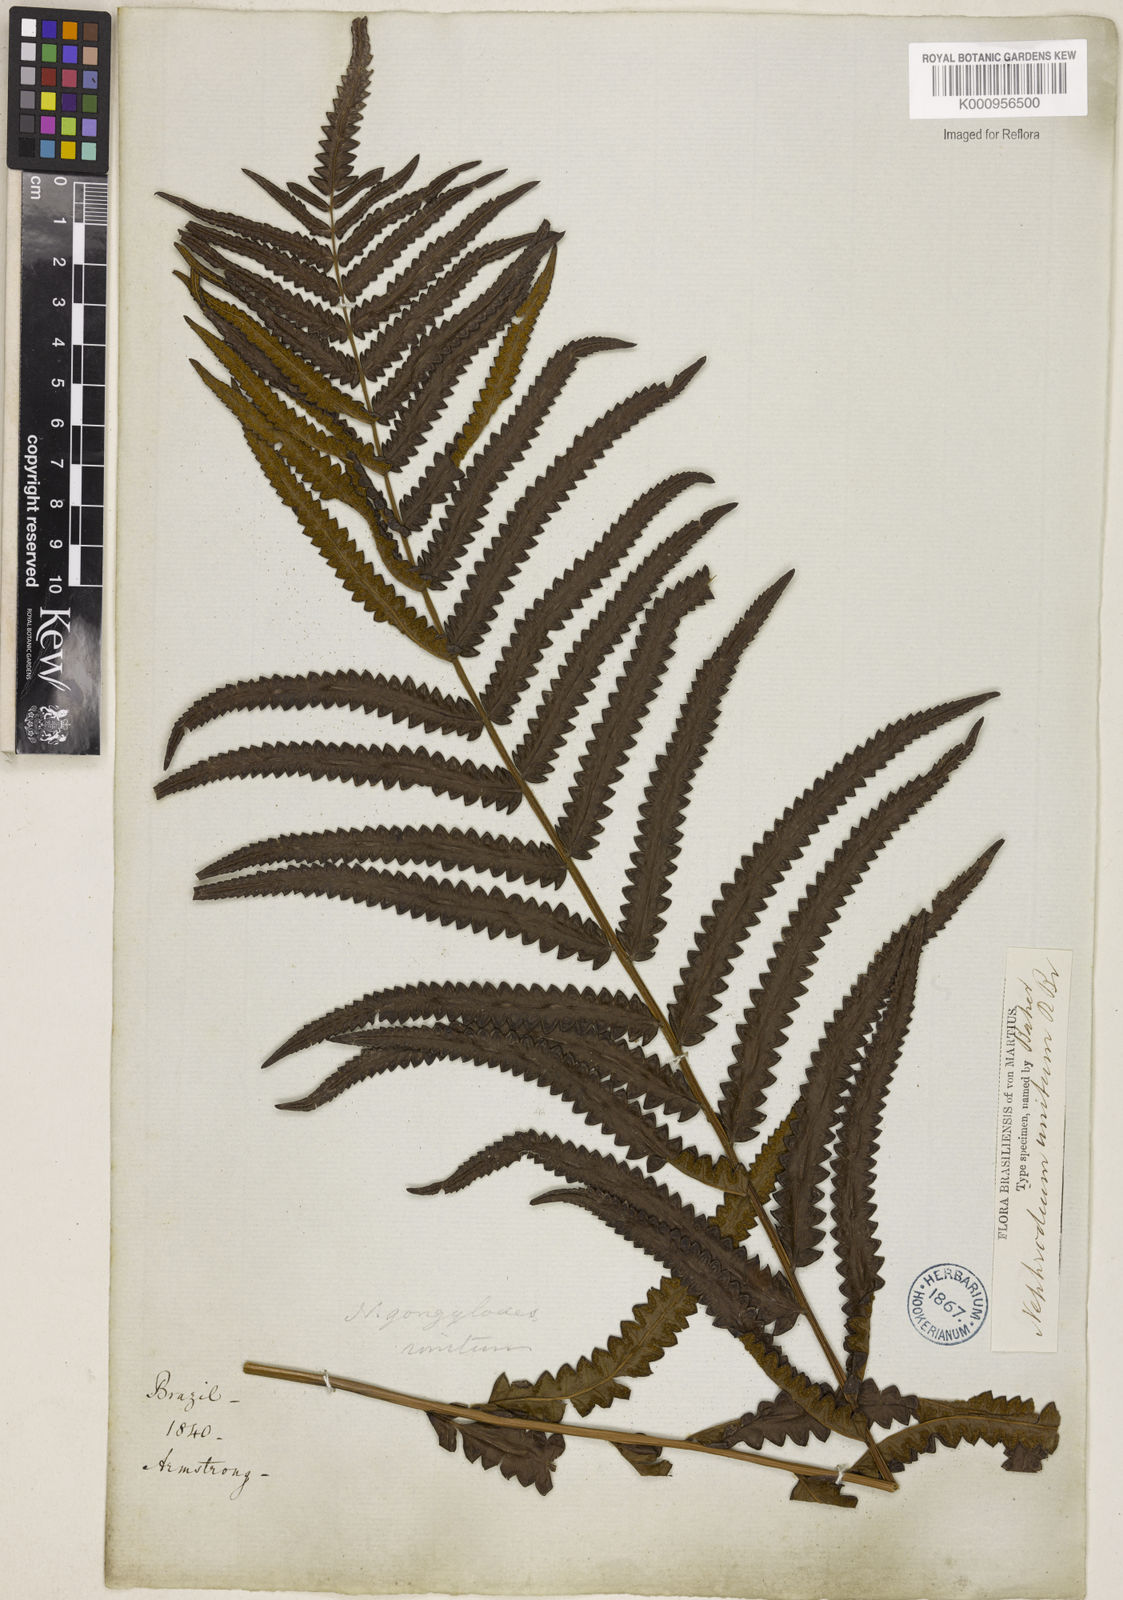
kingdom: Plantae
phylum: Tracheophyta
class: Polypodiopsida
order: Polypodiales
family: Thelypteridaceae
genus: Cyclosorus
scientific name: Cyclosorus interruptus
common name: Neke fern
